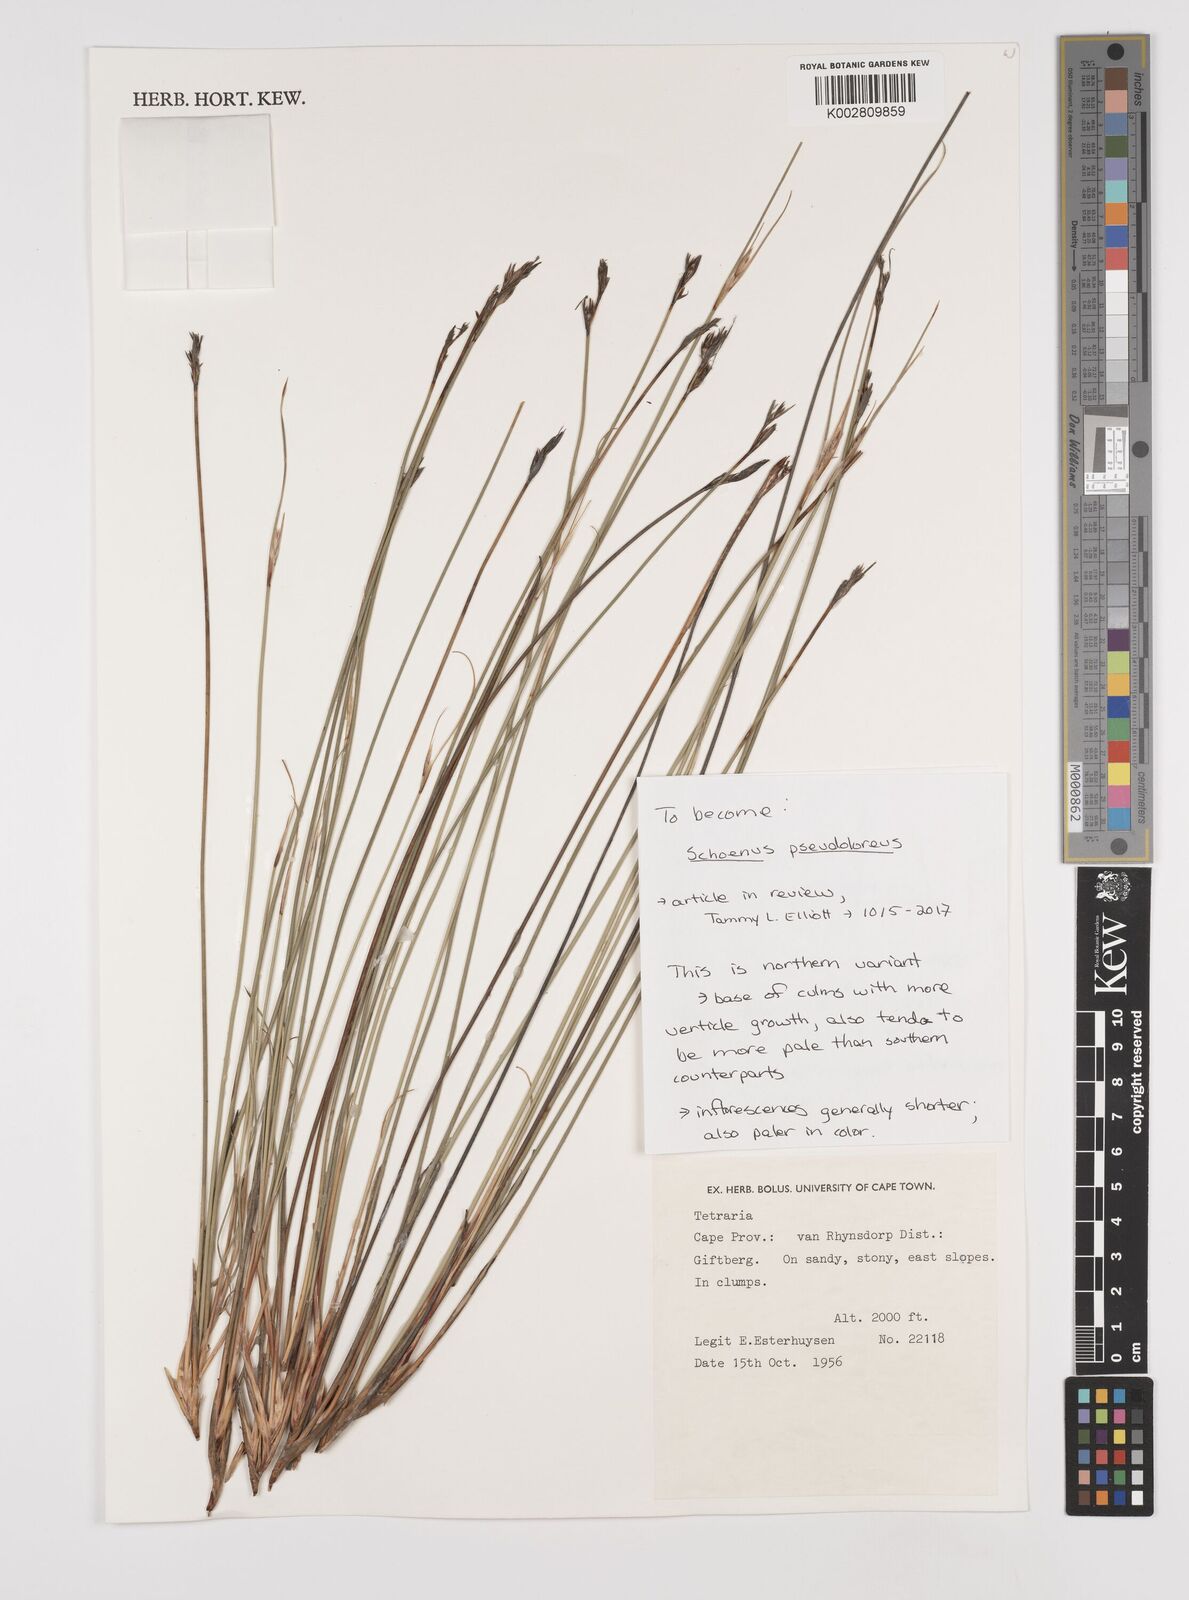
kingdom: Plantae
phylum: Tracheophyta
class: Liliopsida
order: Poales
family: Cyperaceae
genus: Schoenus
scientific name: Schoenus pseudoloreus
